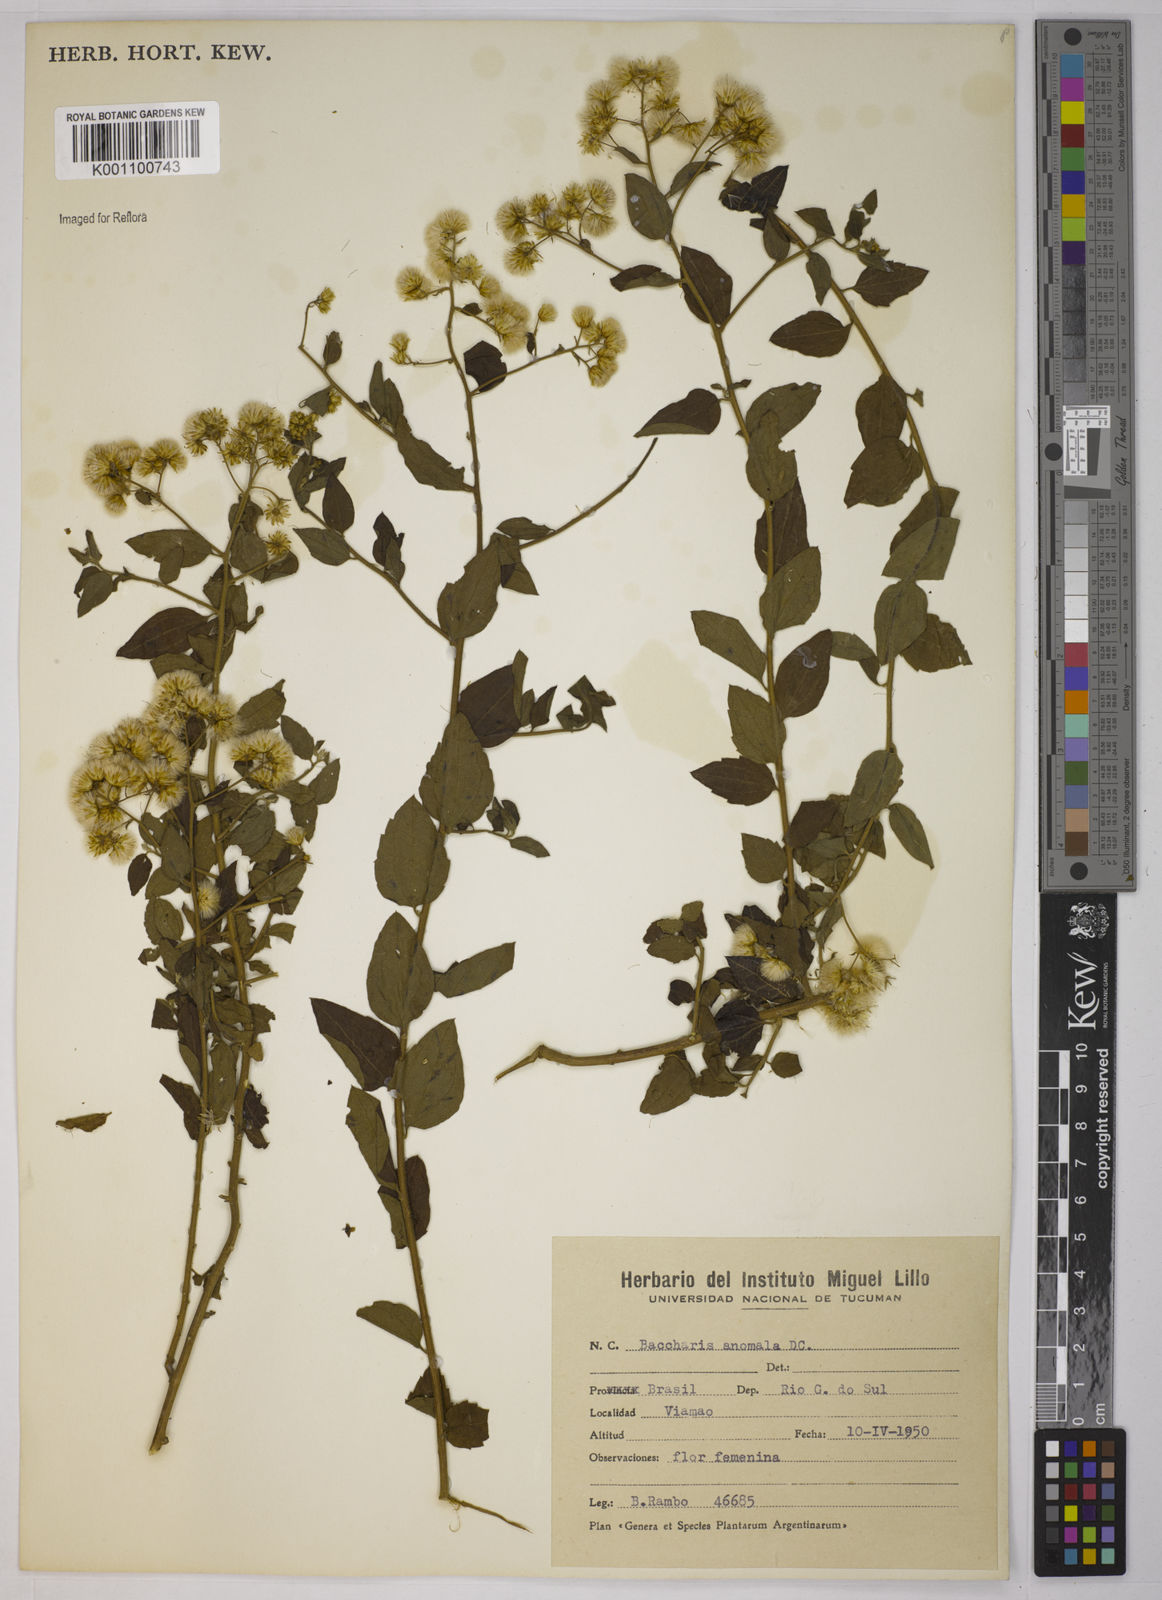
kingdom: Plantae
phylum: Tracheophyta
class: Magnoliopsida
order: Asterales
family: Asteraceae
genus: Baccharis
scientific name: Baccharis anomala
